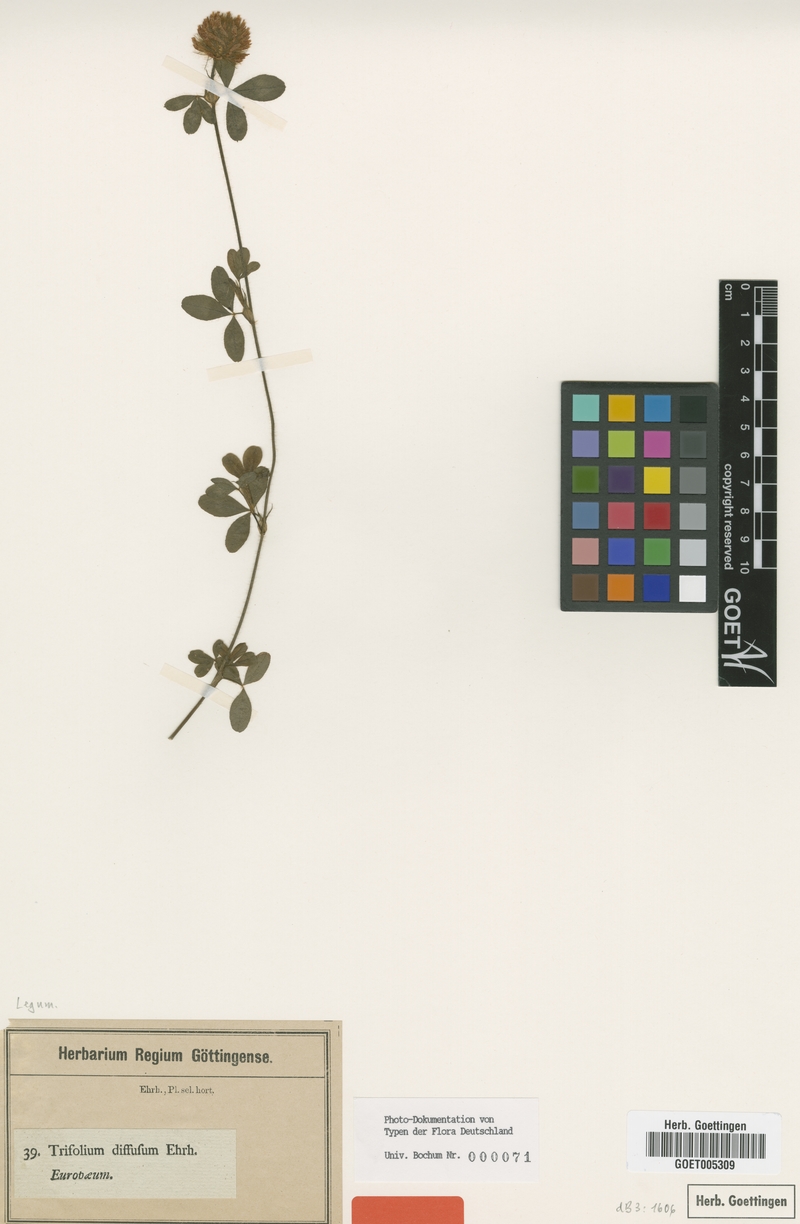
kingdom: Plantae
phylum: Tracheophyta
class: Magnoliopsida
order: Fabales
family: Fabaceae
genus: Trifolium
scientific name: Trifolium diffusum
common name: Diffuse clover
